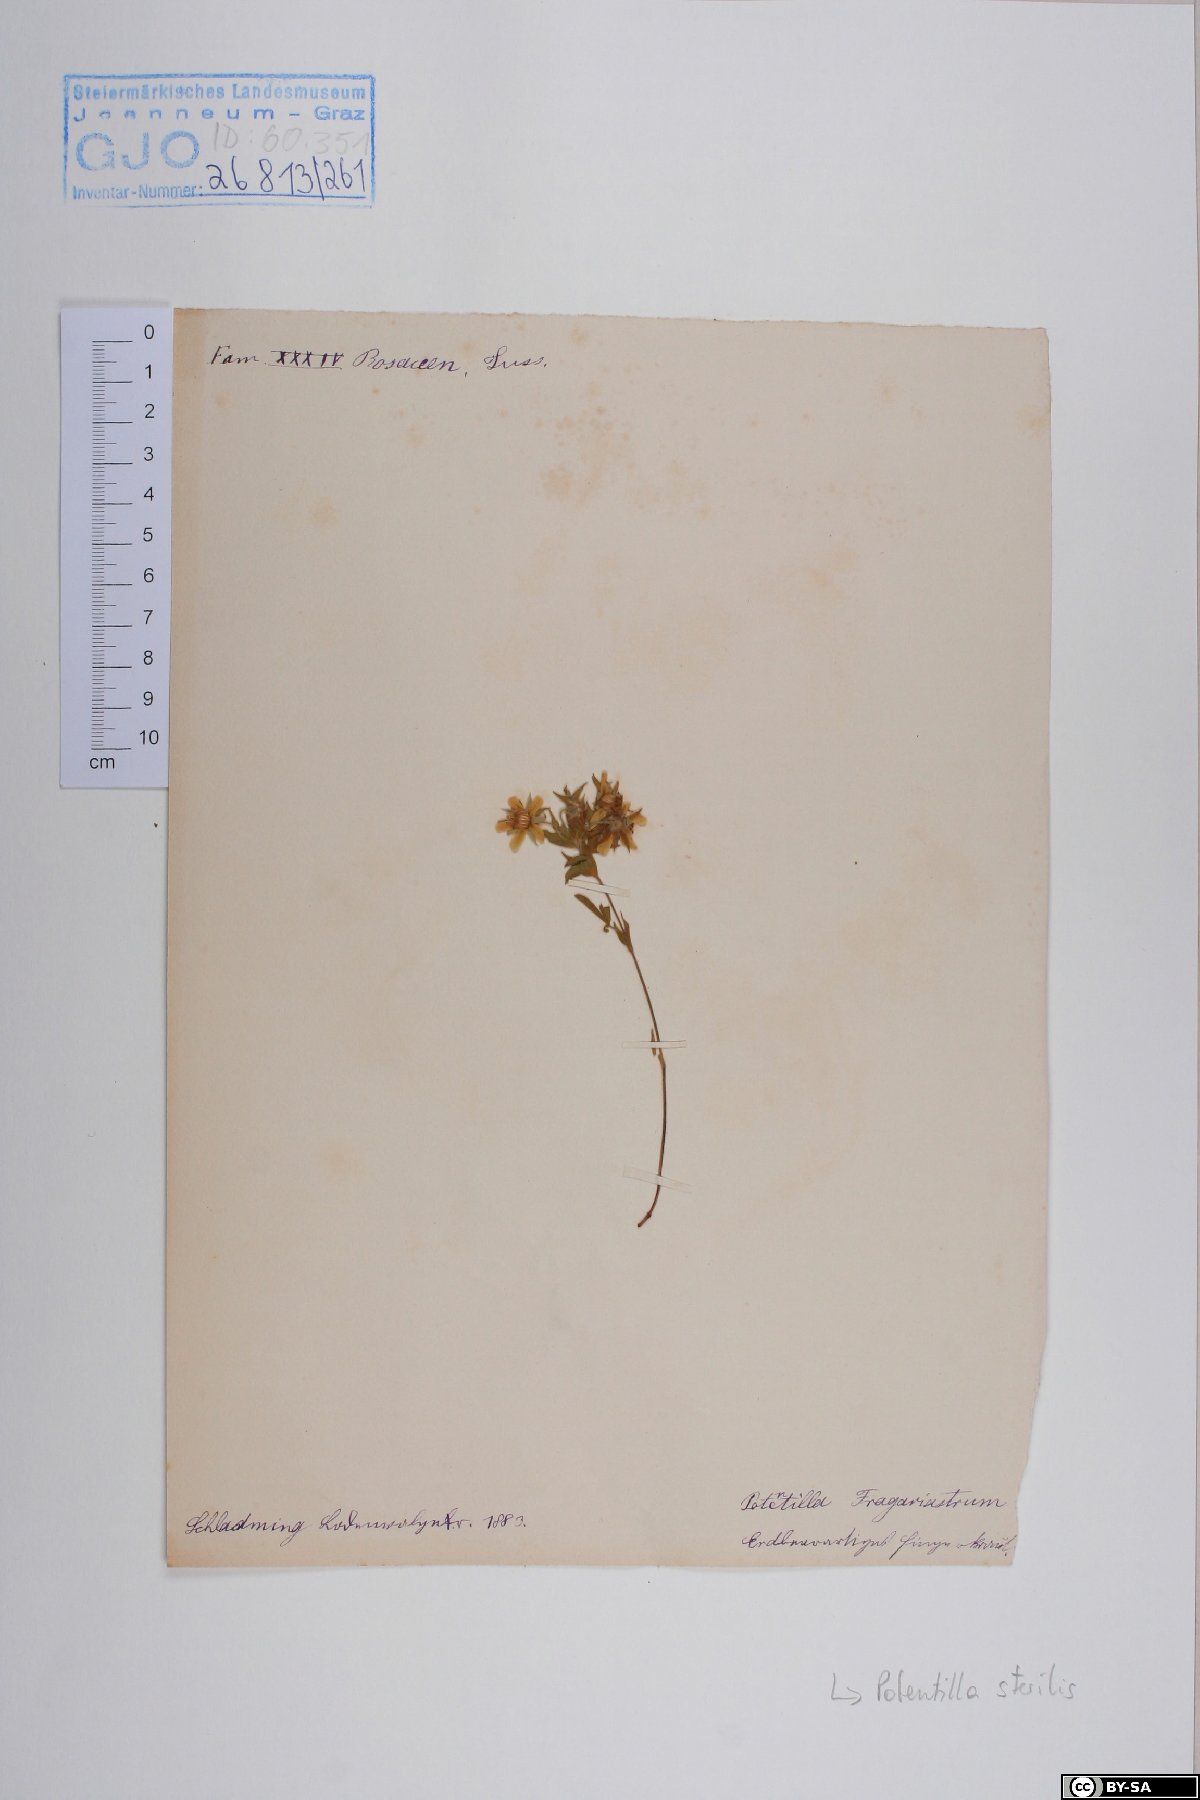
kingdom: Plantae
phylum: Tracheophyta
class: Magnoliopsida
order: Rosales
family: Rosaceae
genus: Potentilla
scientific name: Potentilla caulescens
